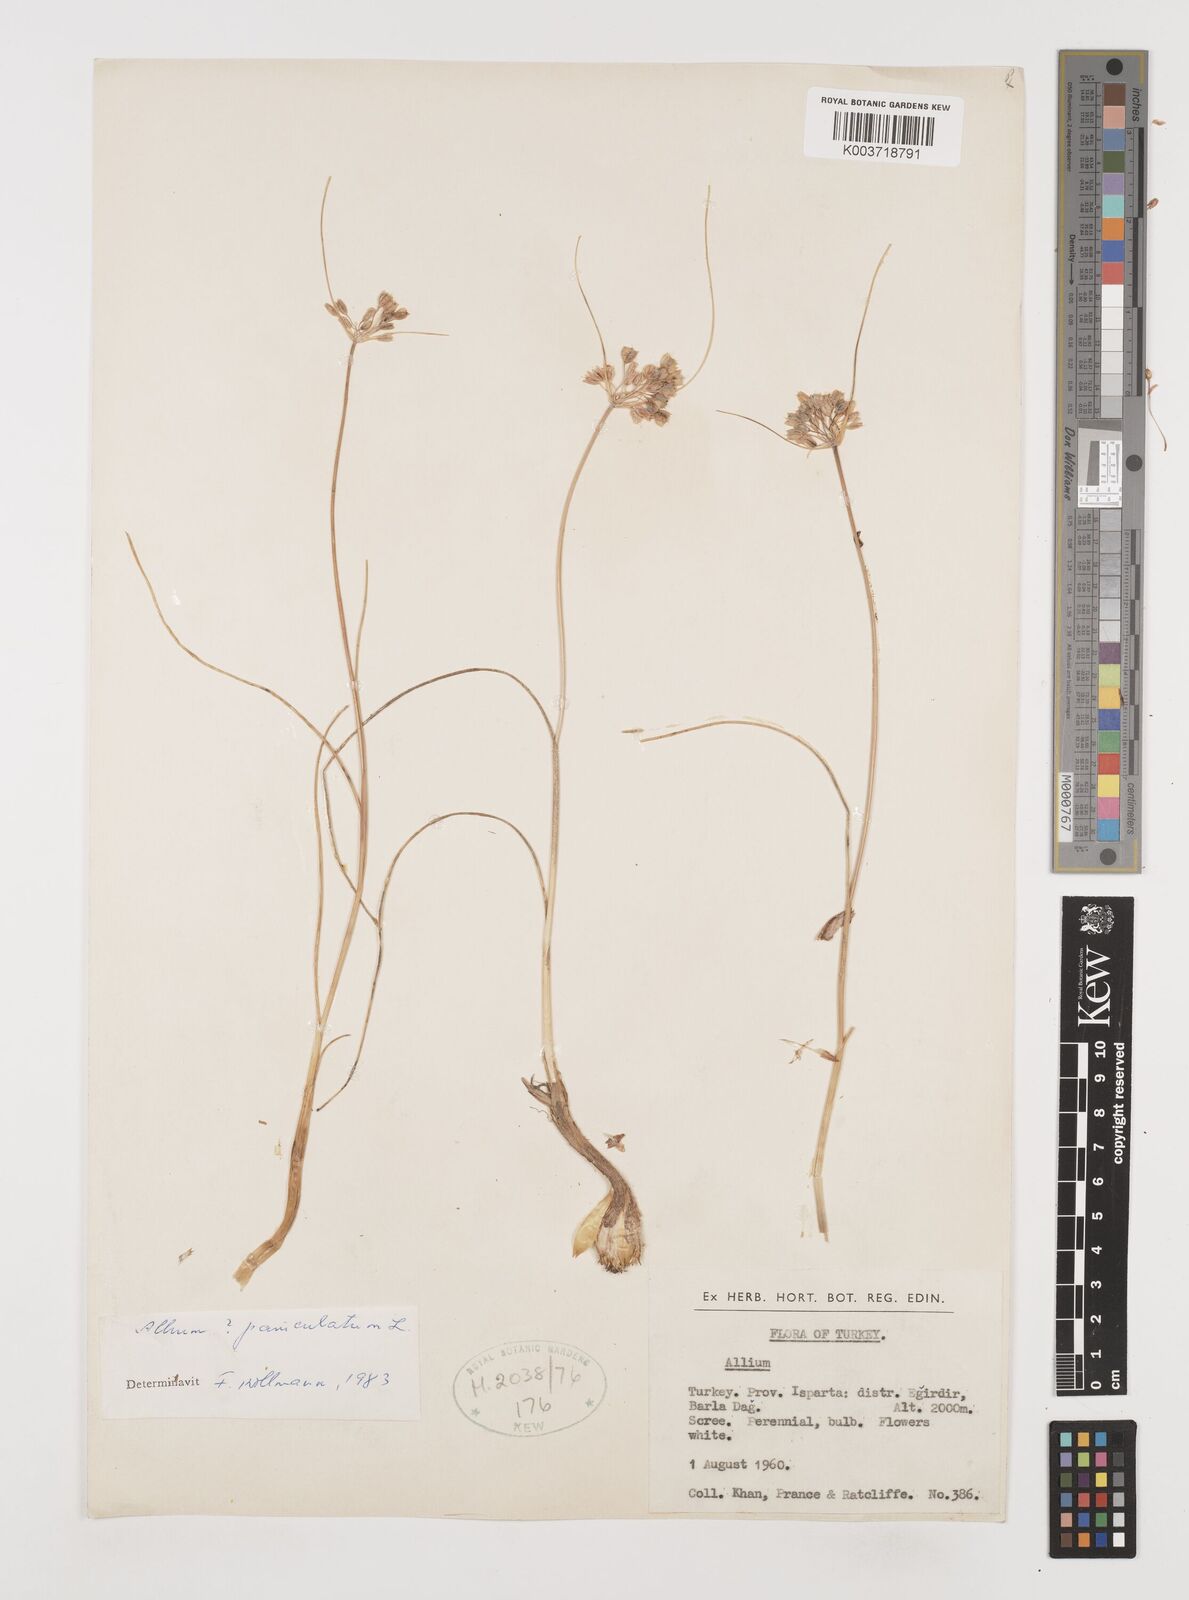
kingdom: Plantae
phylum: Tracheophyta
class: Liliopsida
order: Asparagales
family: Amaryllidaceae
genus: Allium
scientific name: Allium paniculatum
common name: Pale garlic
